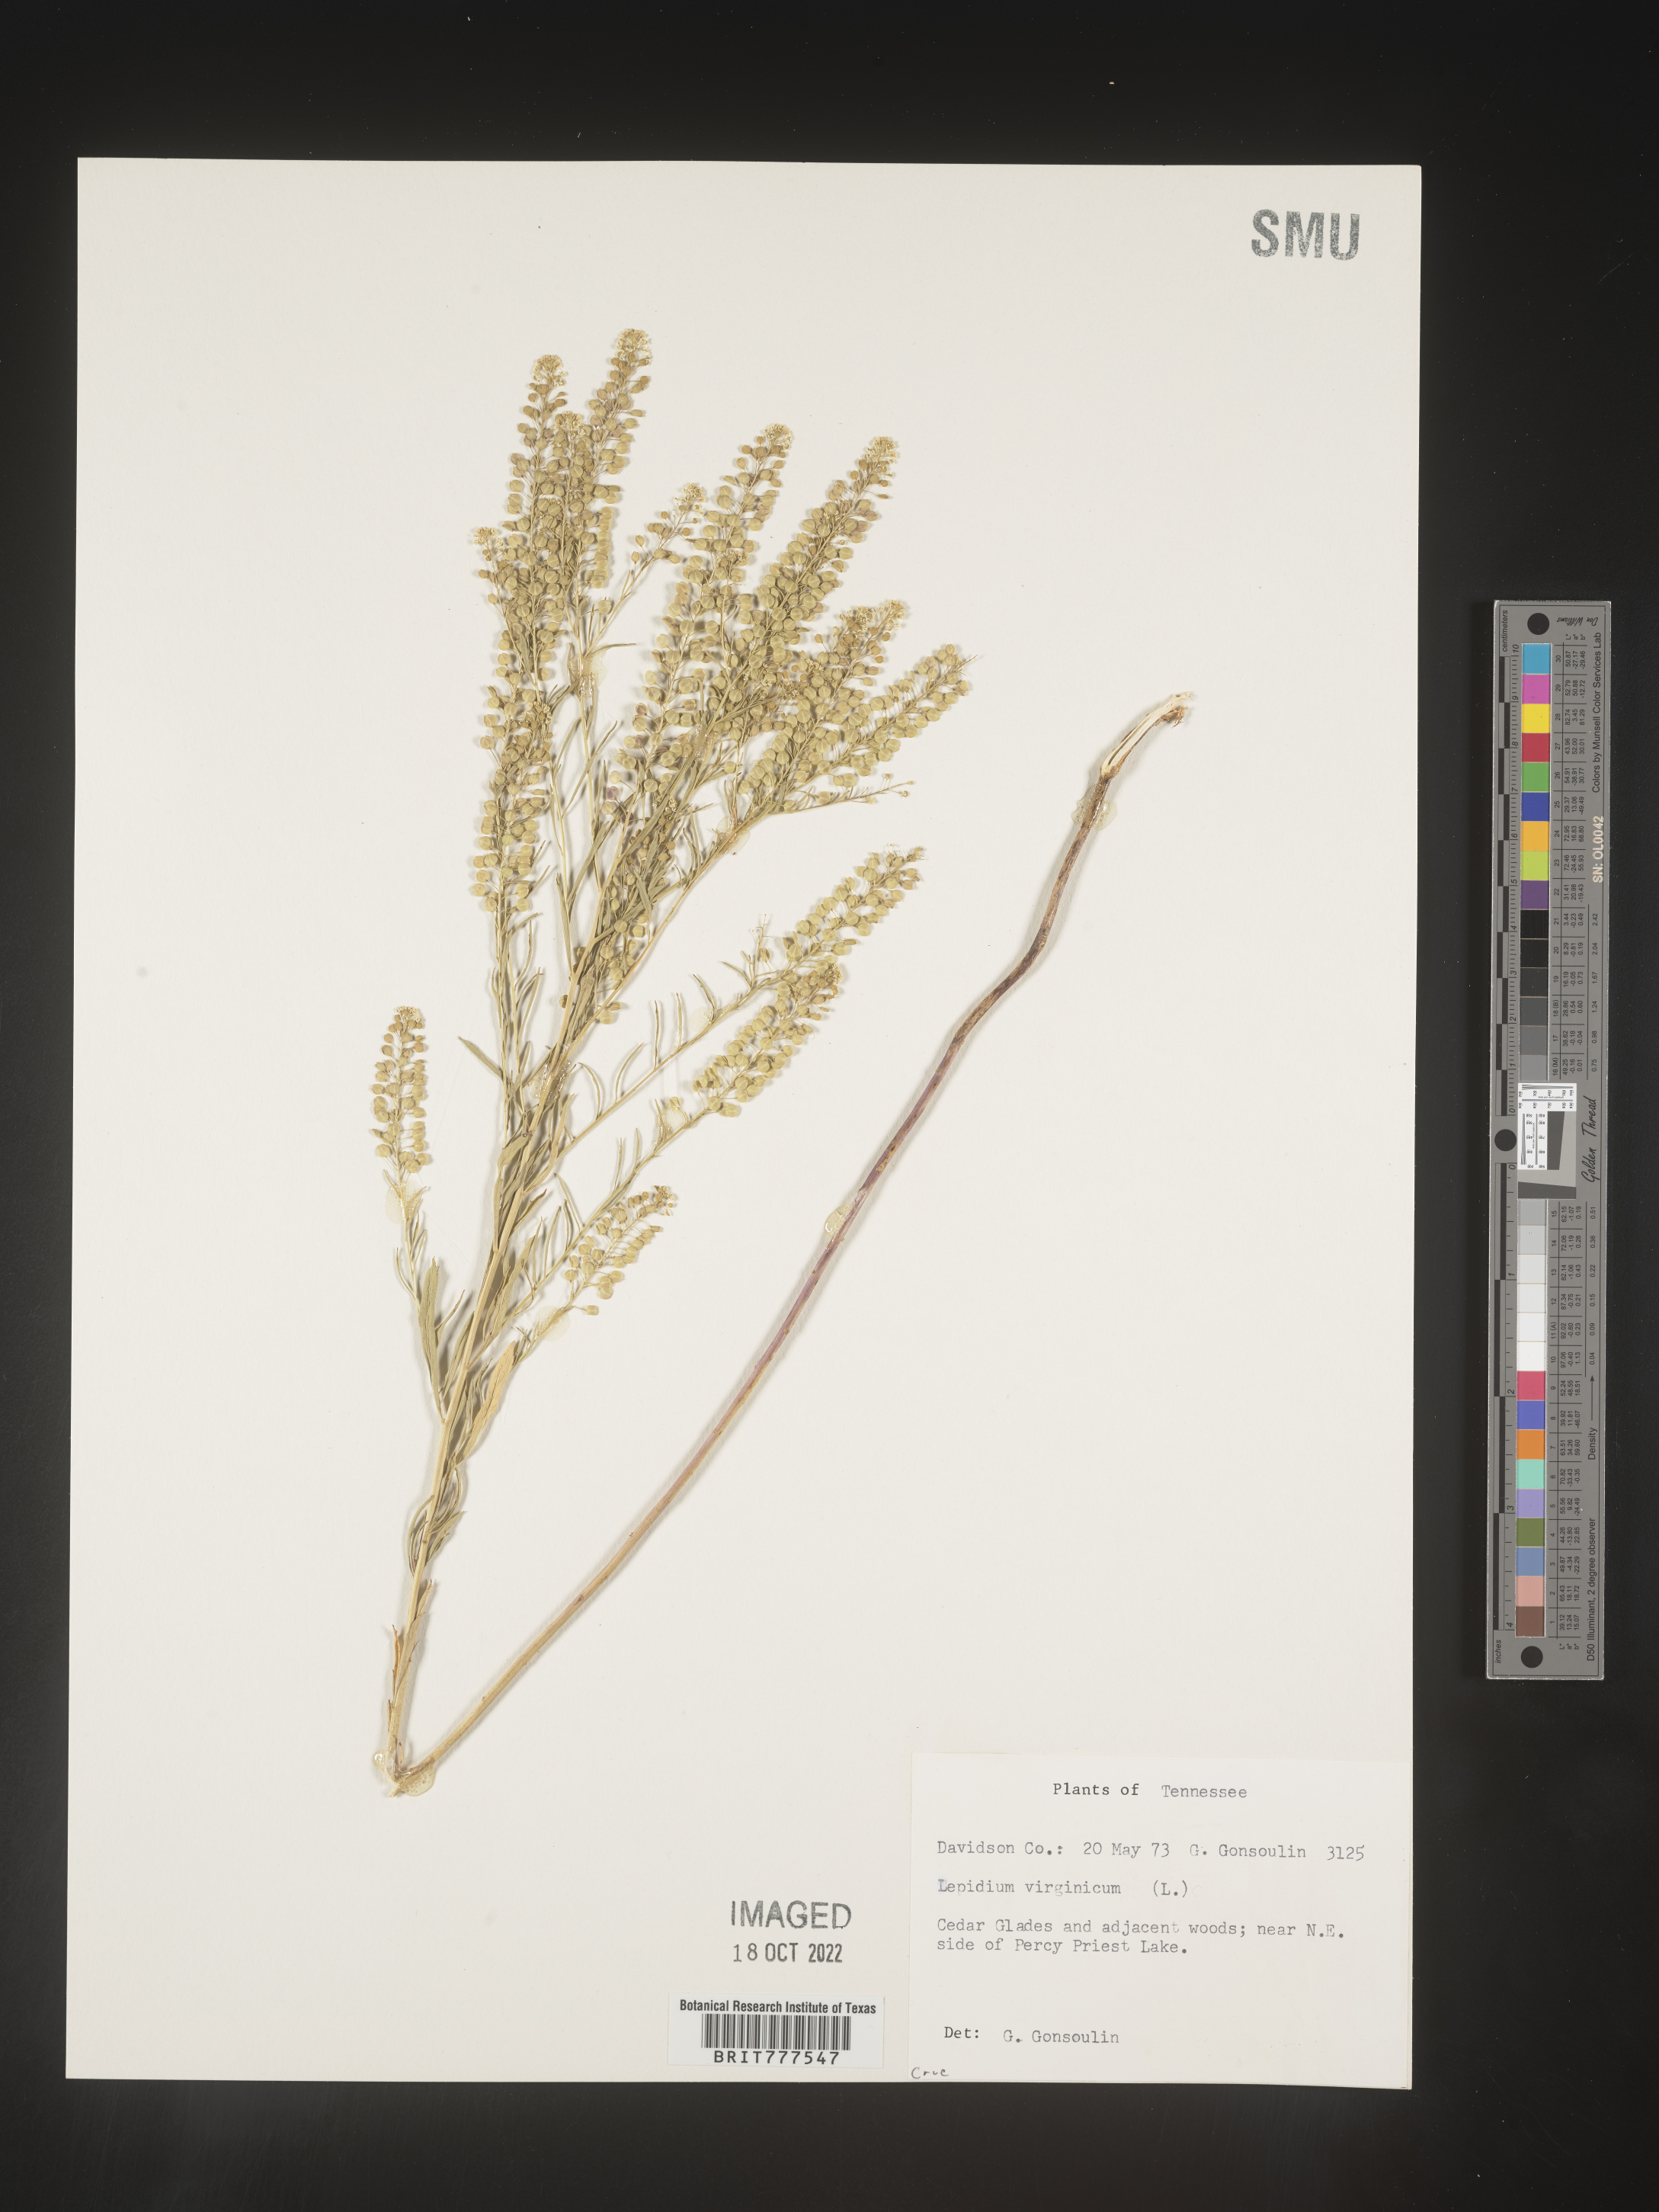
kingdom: Plantae
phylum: Tracheophyta
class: Magnoliopsida
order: Brassicales
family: Brassicaceae
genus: Lepidium
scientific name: Lepidium virginicum
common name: Least pepperwort
